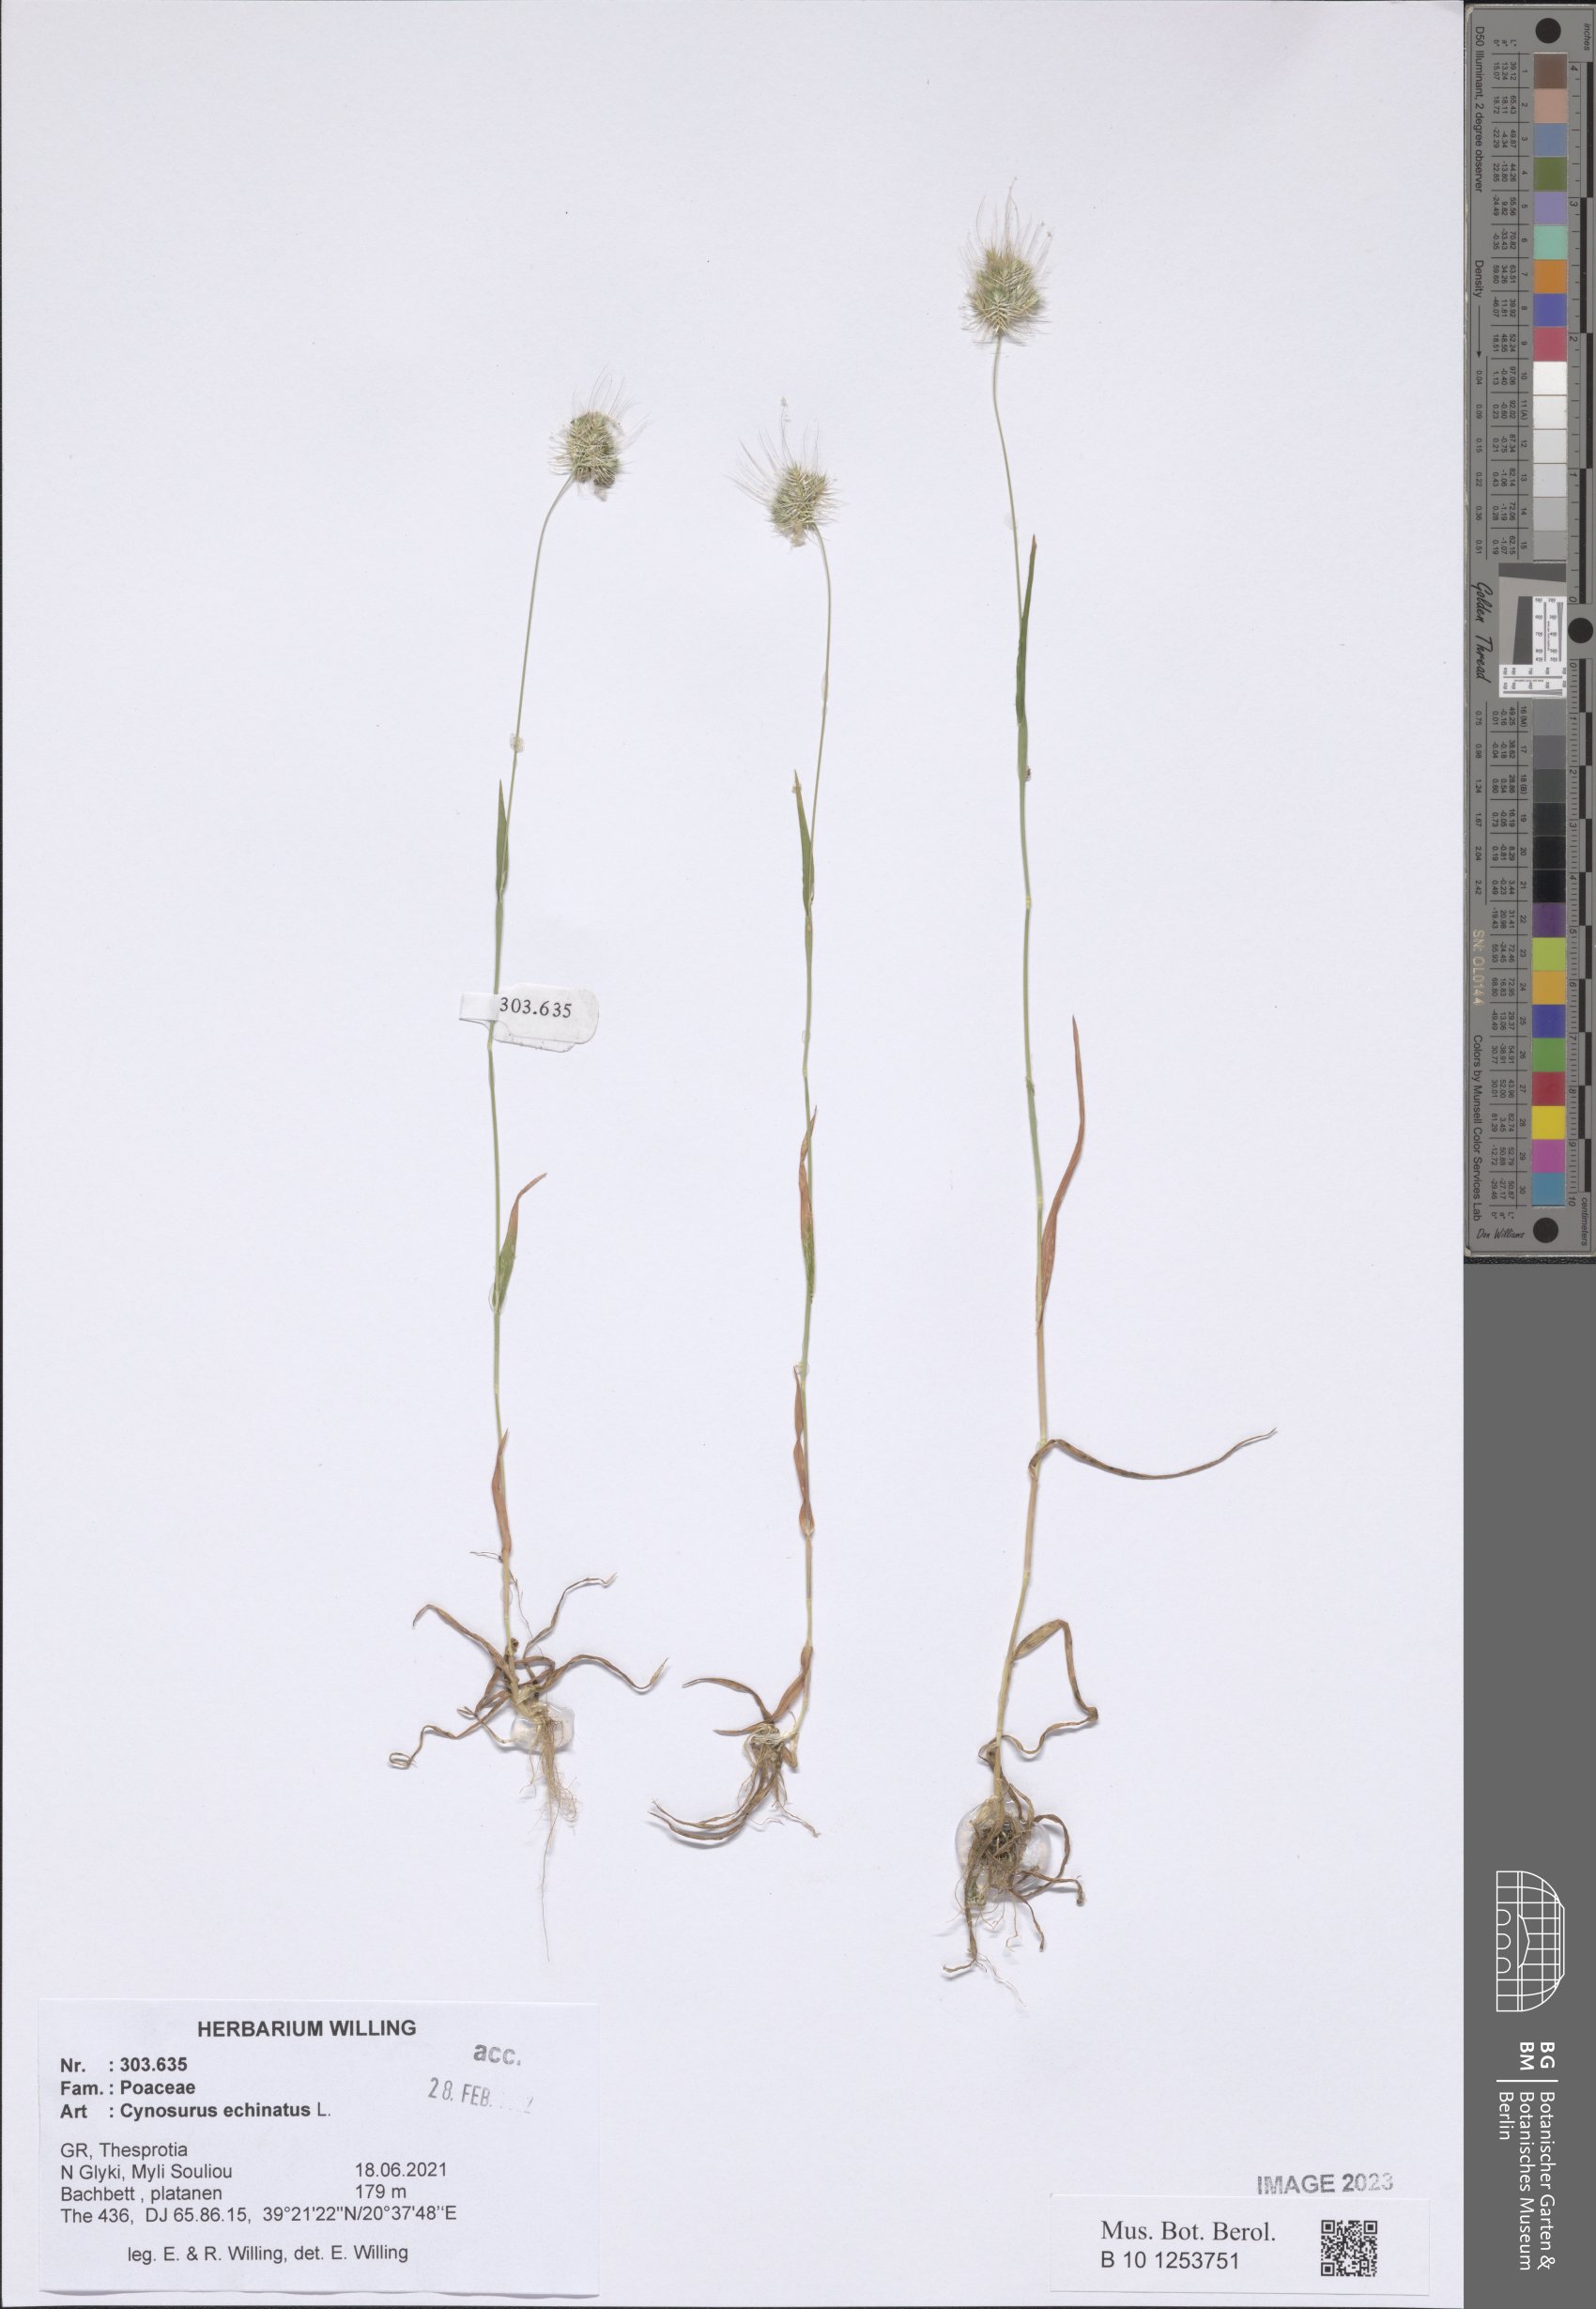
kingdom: Plantae
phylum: Tracheophyta
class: Liliopsida
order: Poales
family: Poaceae
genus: Cynosurus
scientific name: Cynosurus echinatus
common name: Rough dog's-tail
